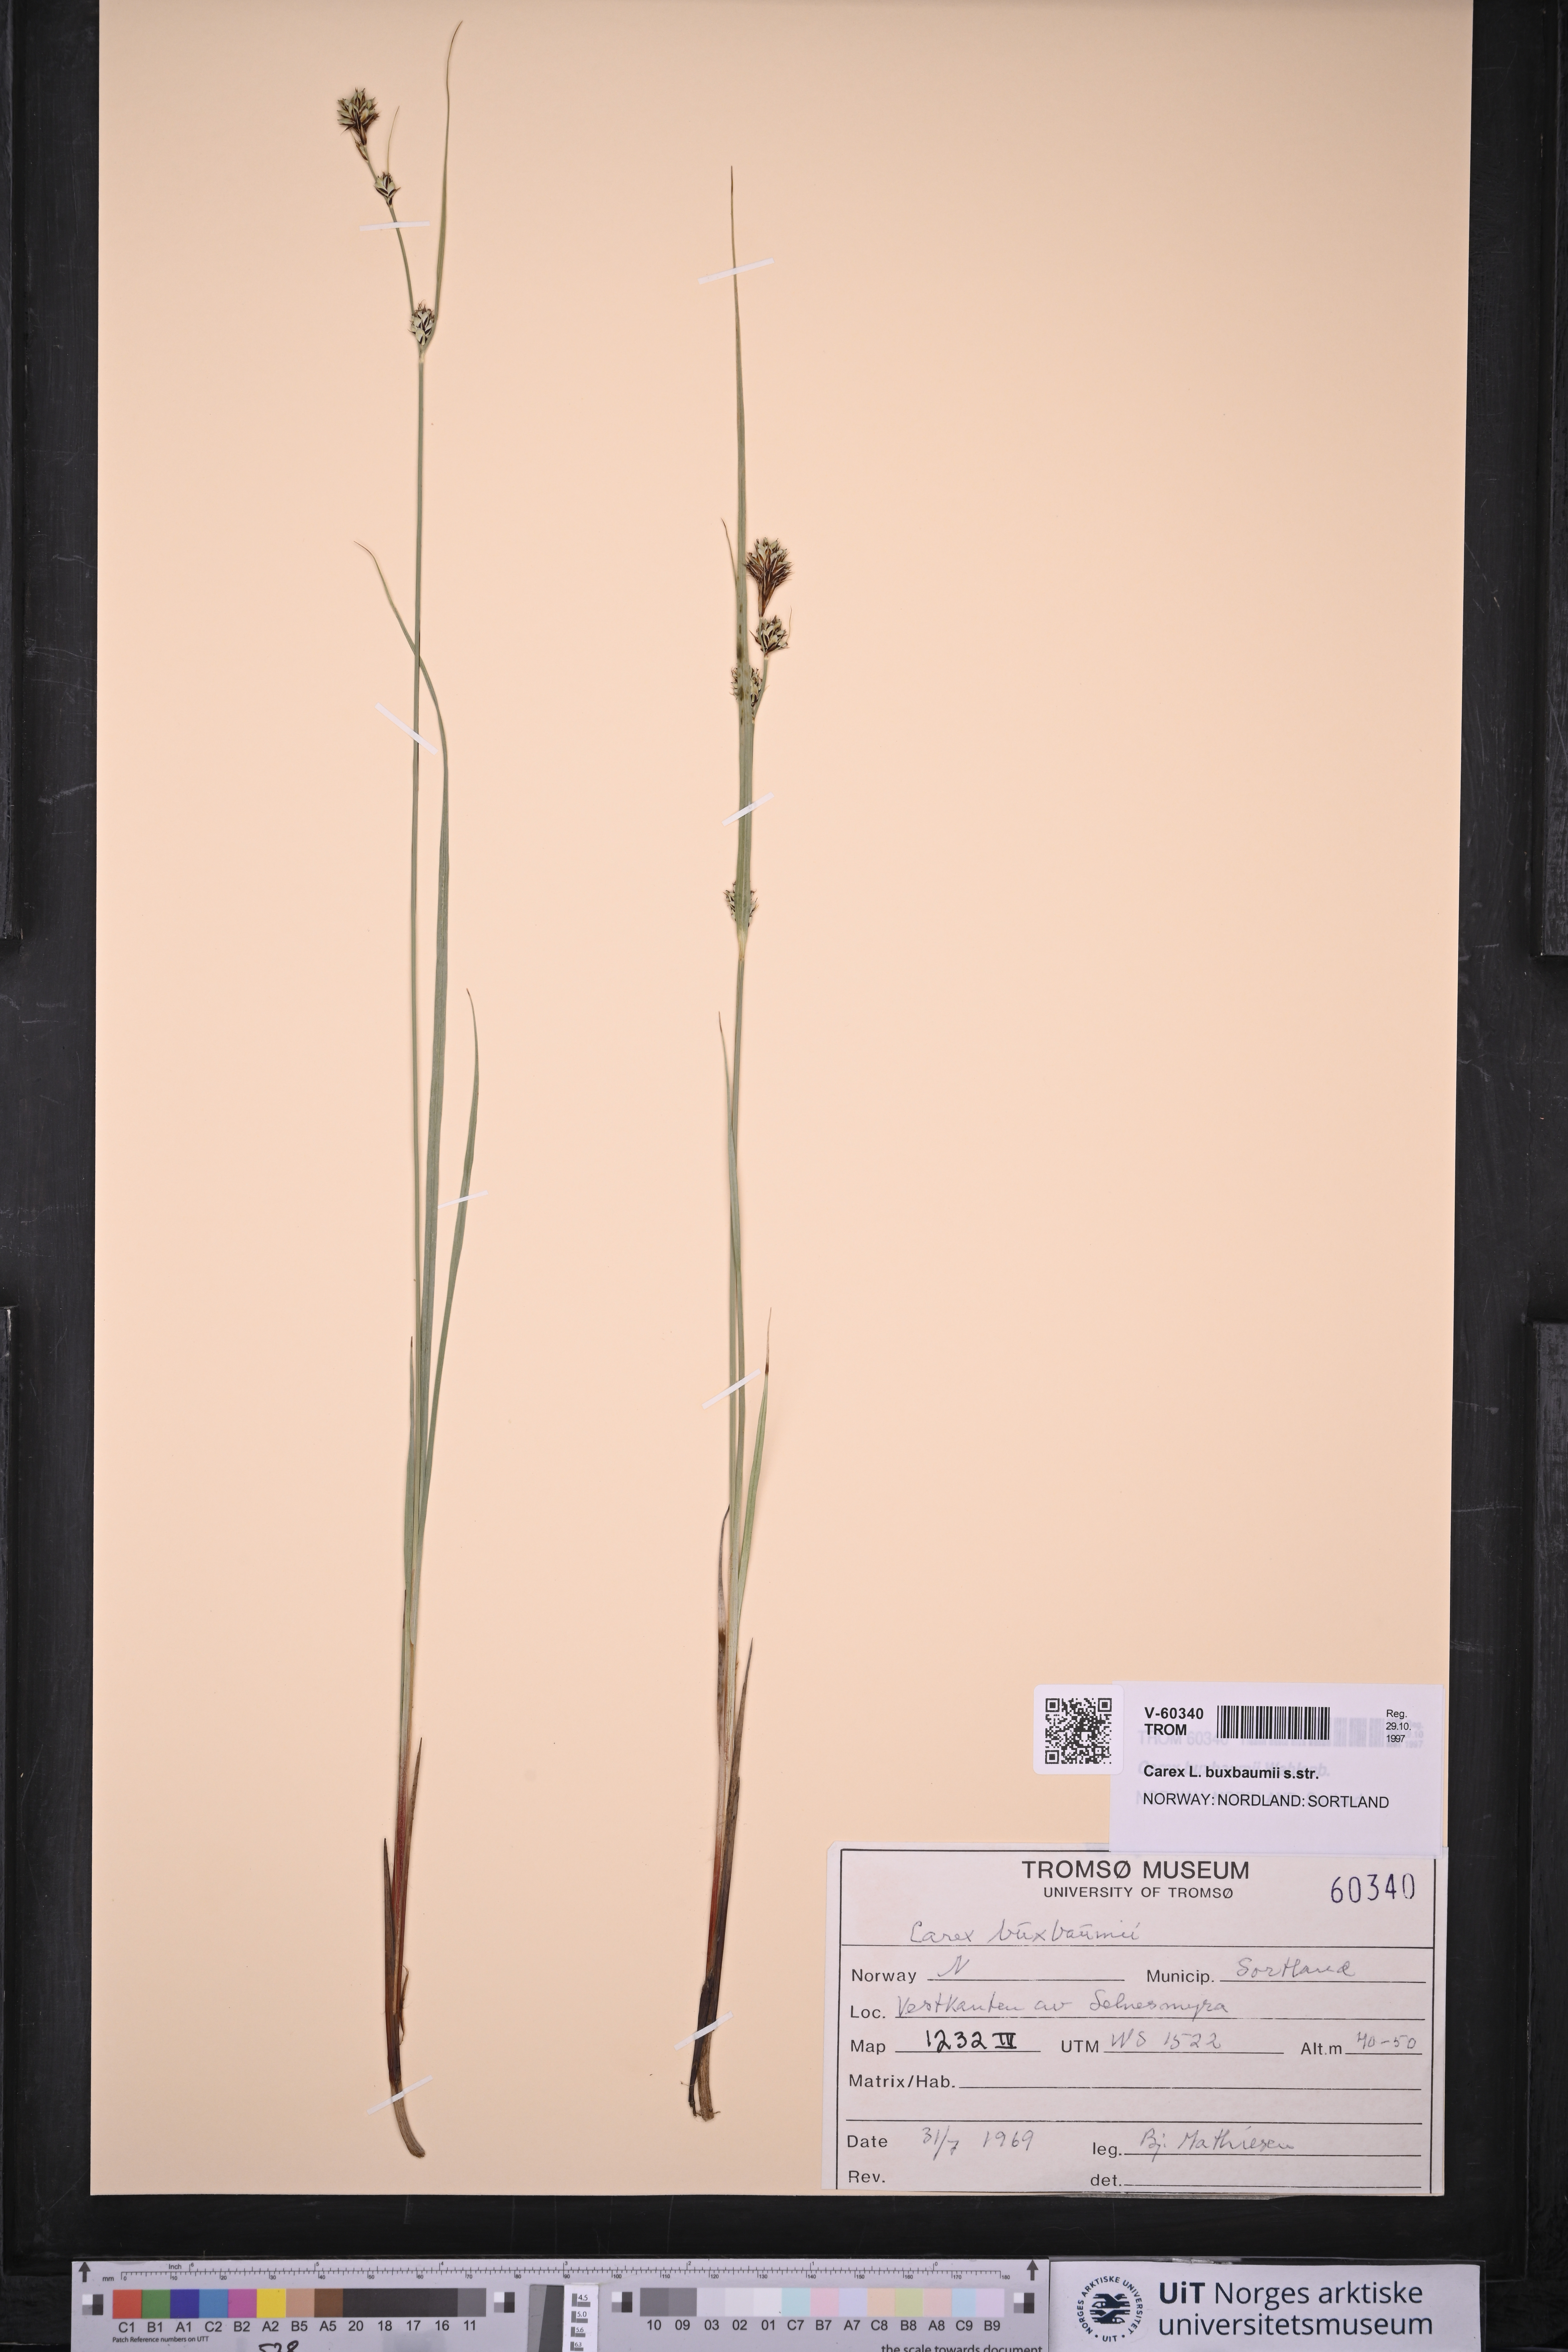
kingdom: Plantae
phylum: Tracheophyta
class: Liliopsida
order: Poales
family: Cyperaceae
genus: Carex
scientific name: Carex buxbaumii
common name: Club sedge
